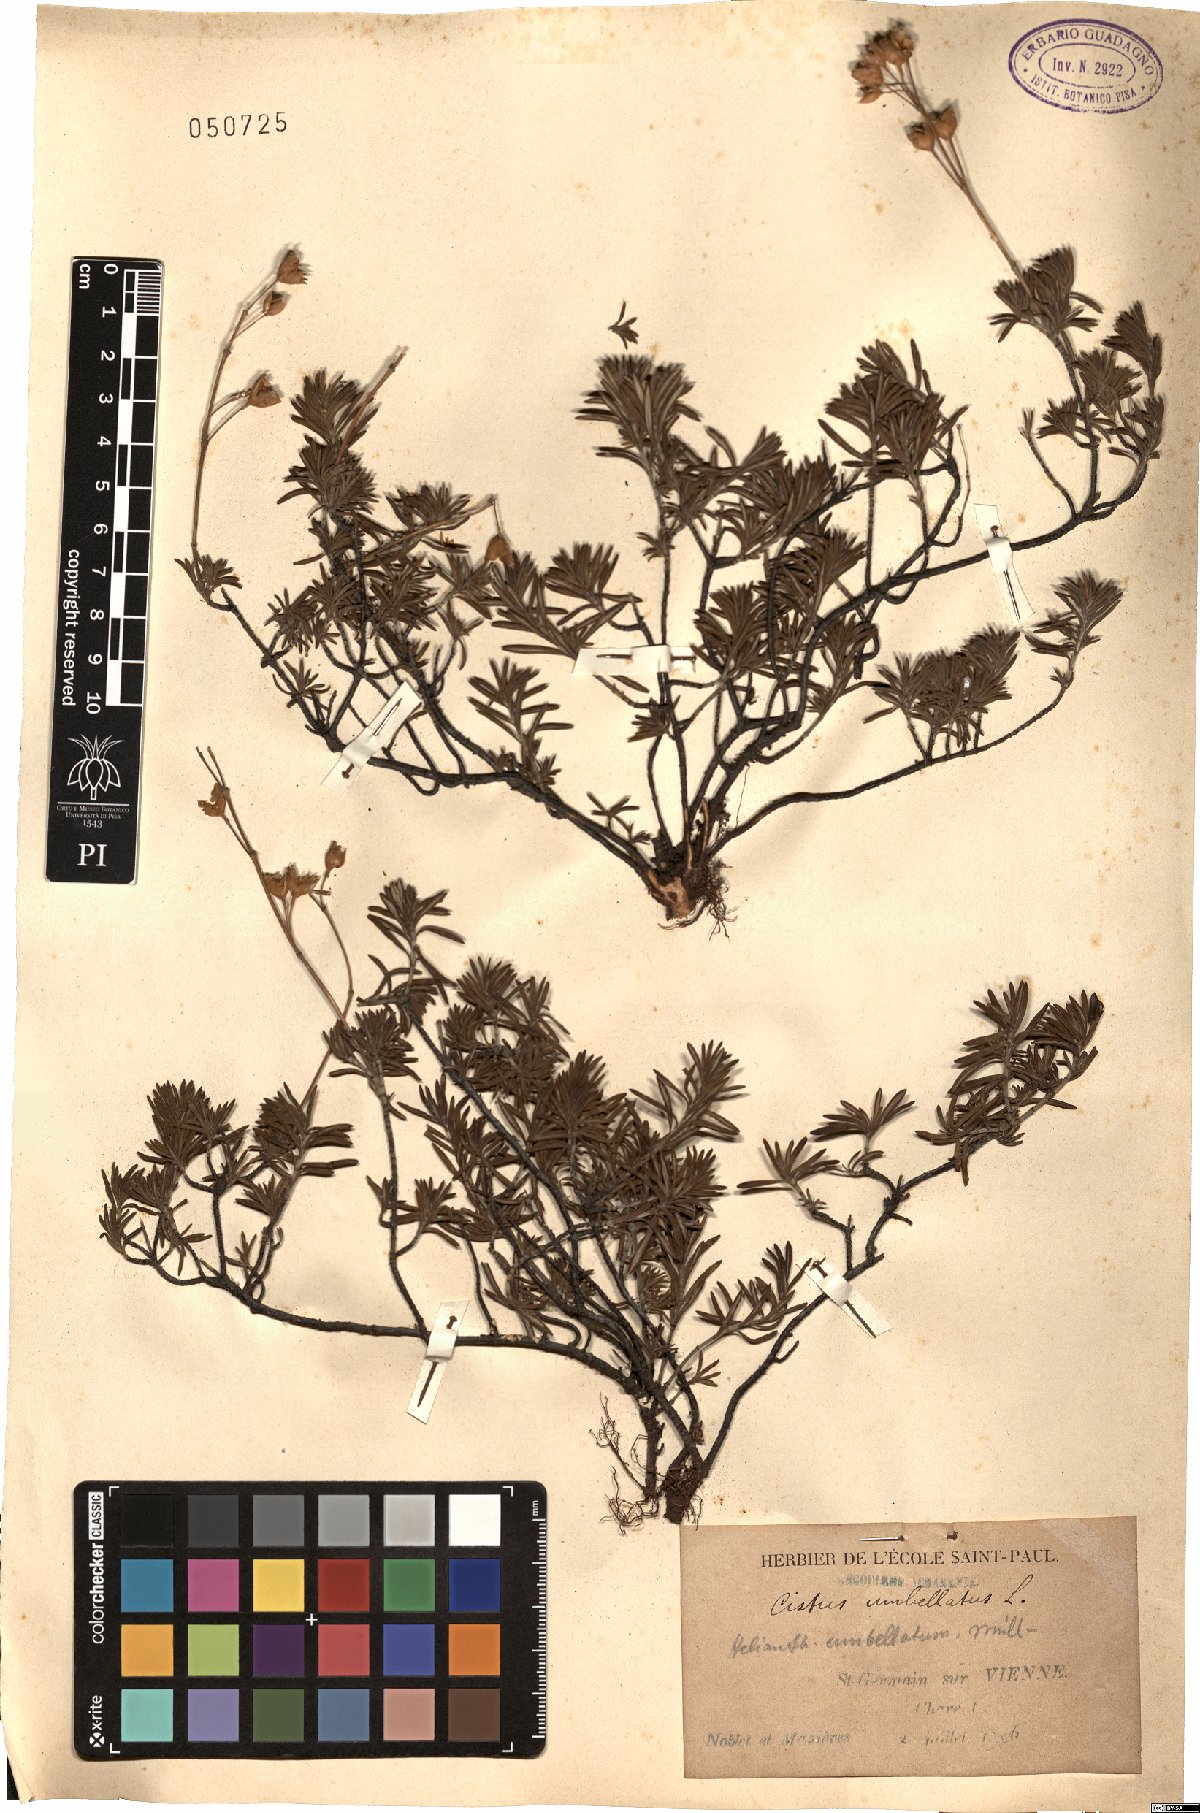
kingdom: Plantae
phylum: Tracheophyta
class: Magnoliopsida
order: Malvales
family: Cistaceae
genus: Halimium
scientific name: Halimium umbellatum
